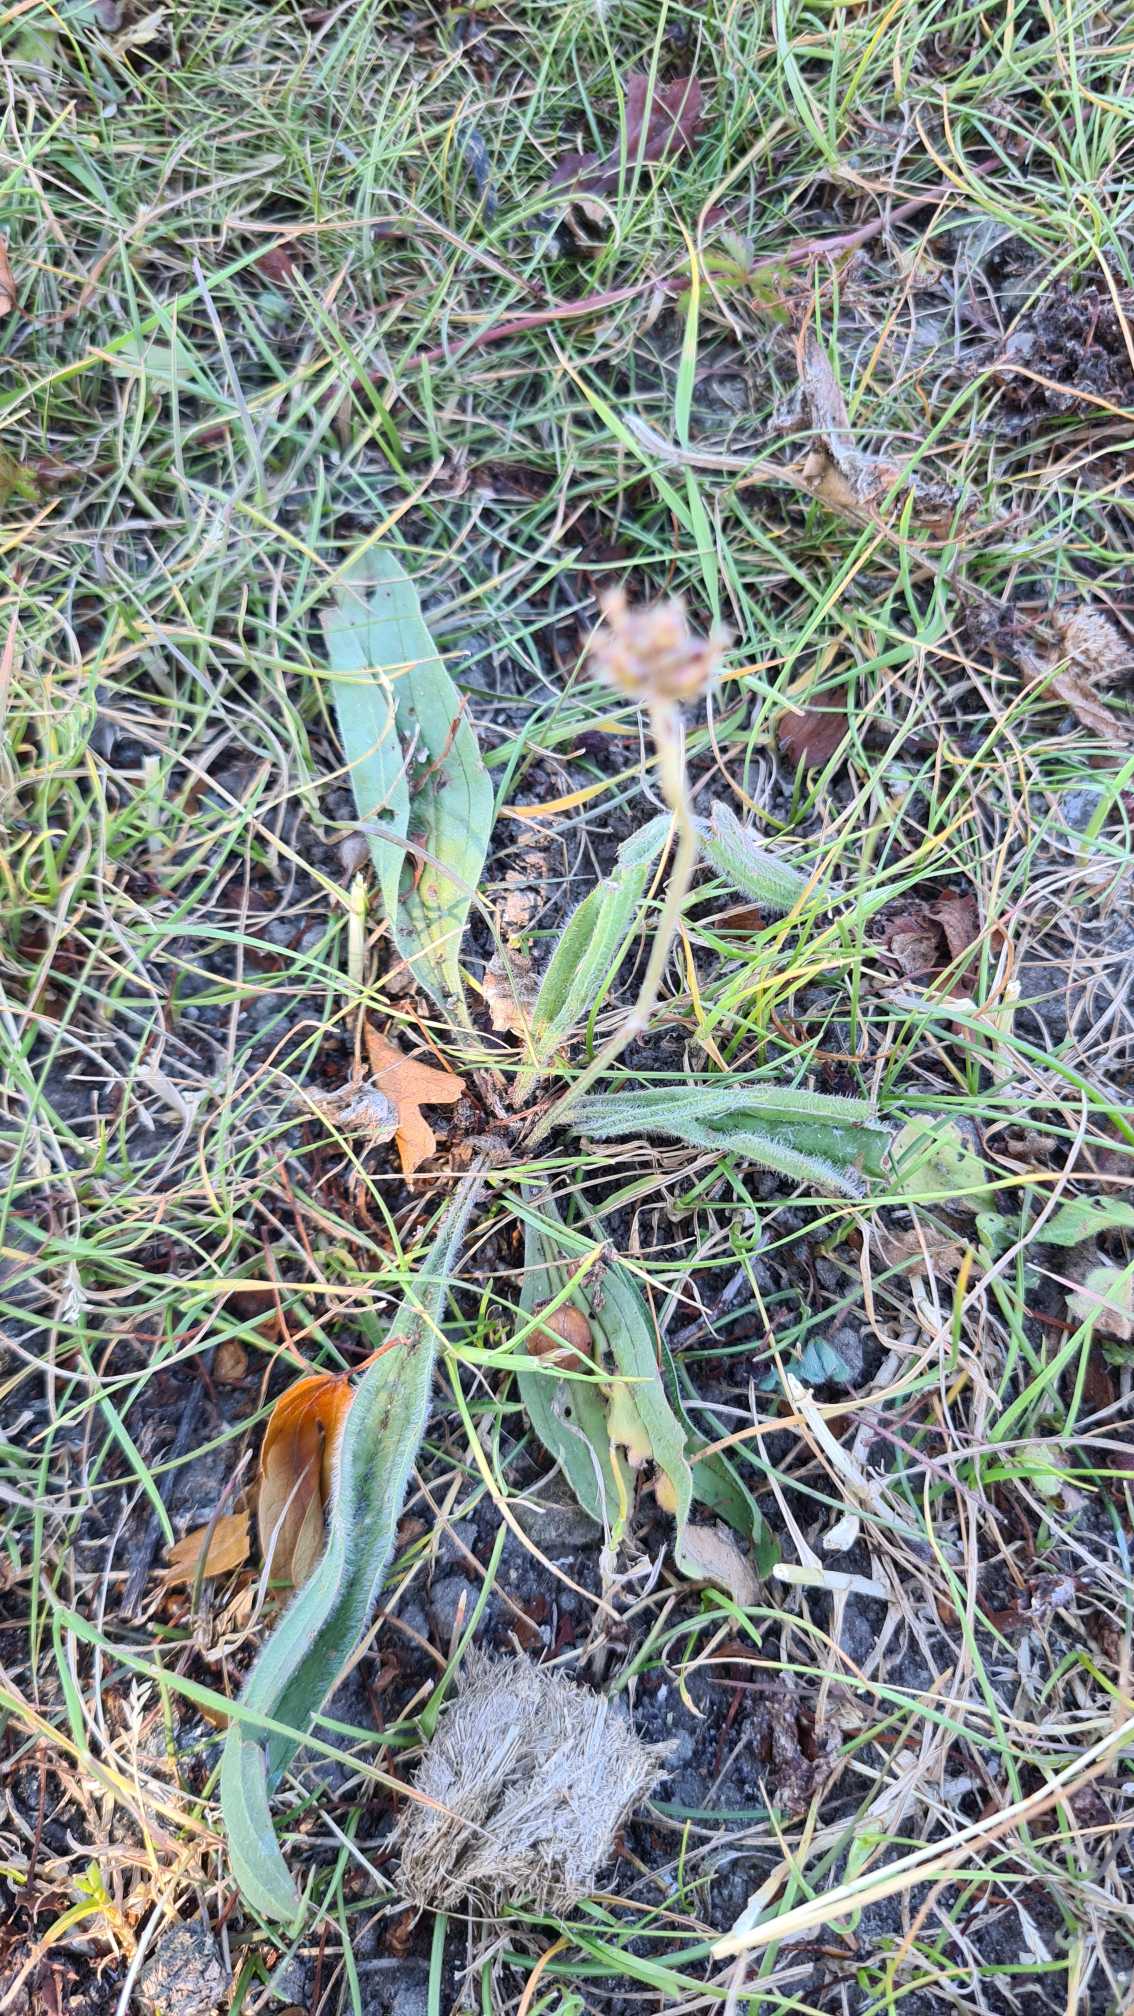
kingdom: Plantae
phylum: Tracheophyta
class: Magnoliopsida
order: Lamiales
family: Plantaginaceae
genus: Plantago
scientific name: Plantago lanceolata
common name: Lancet-vejbred
